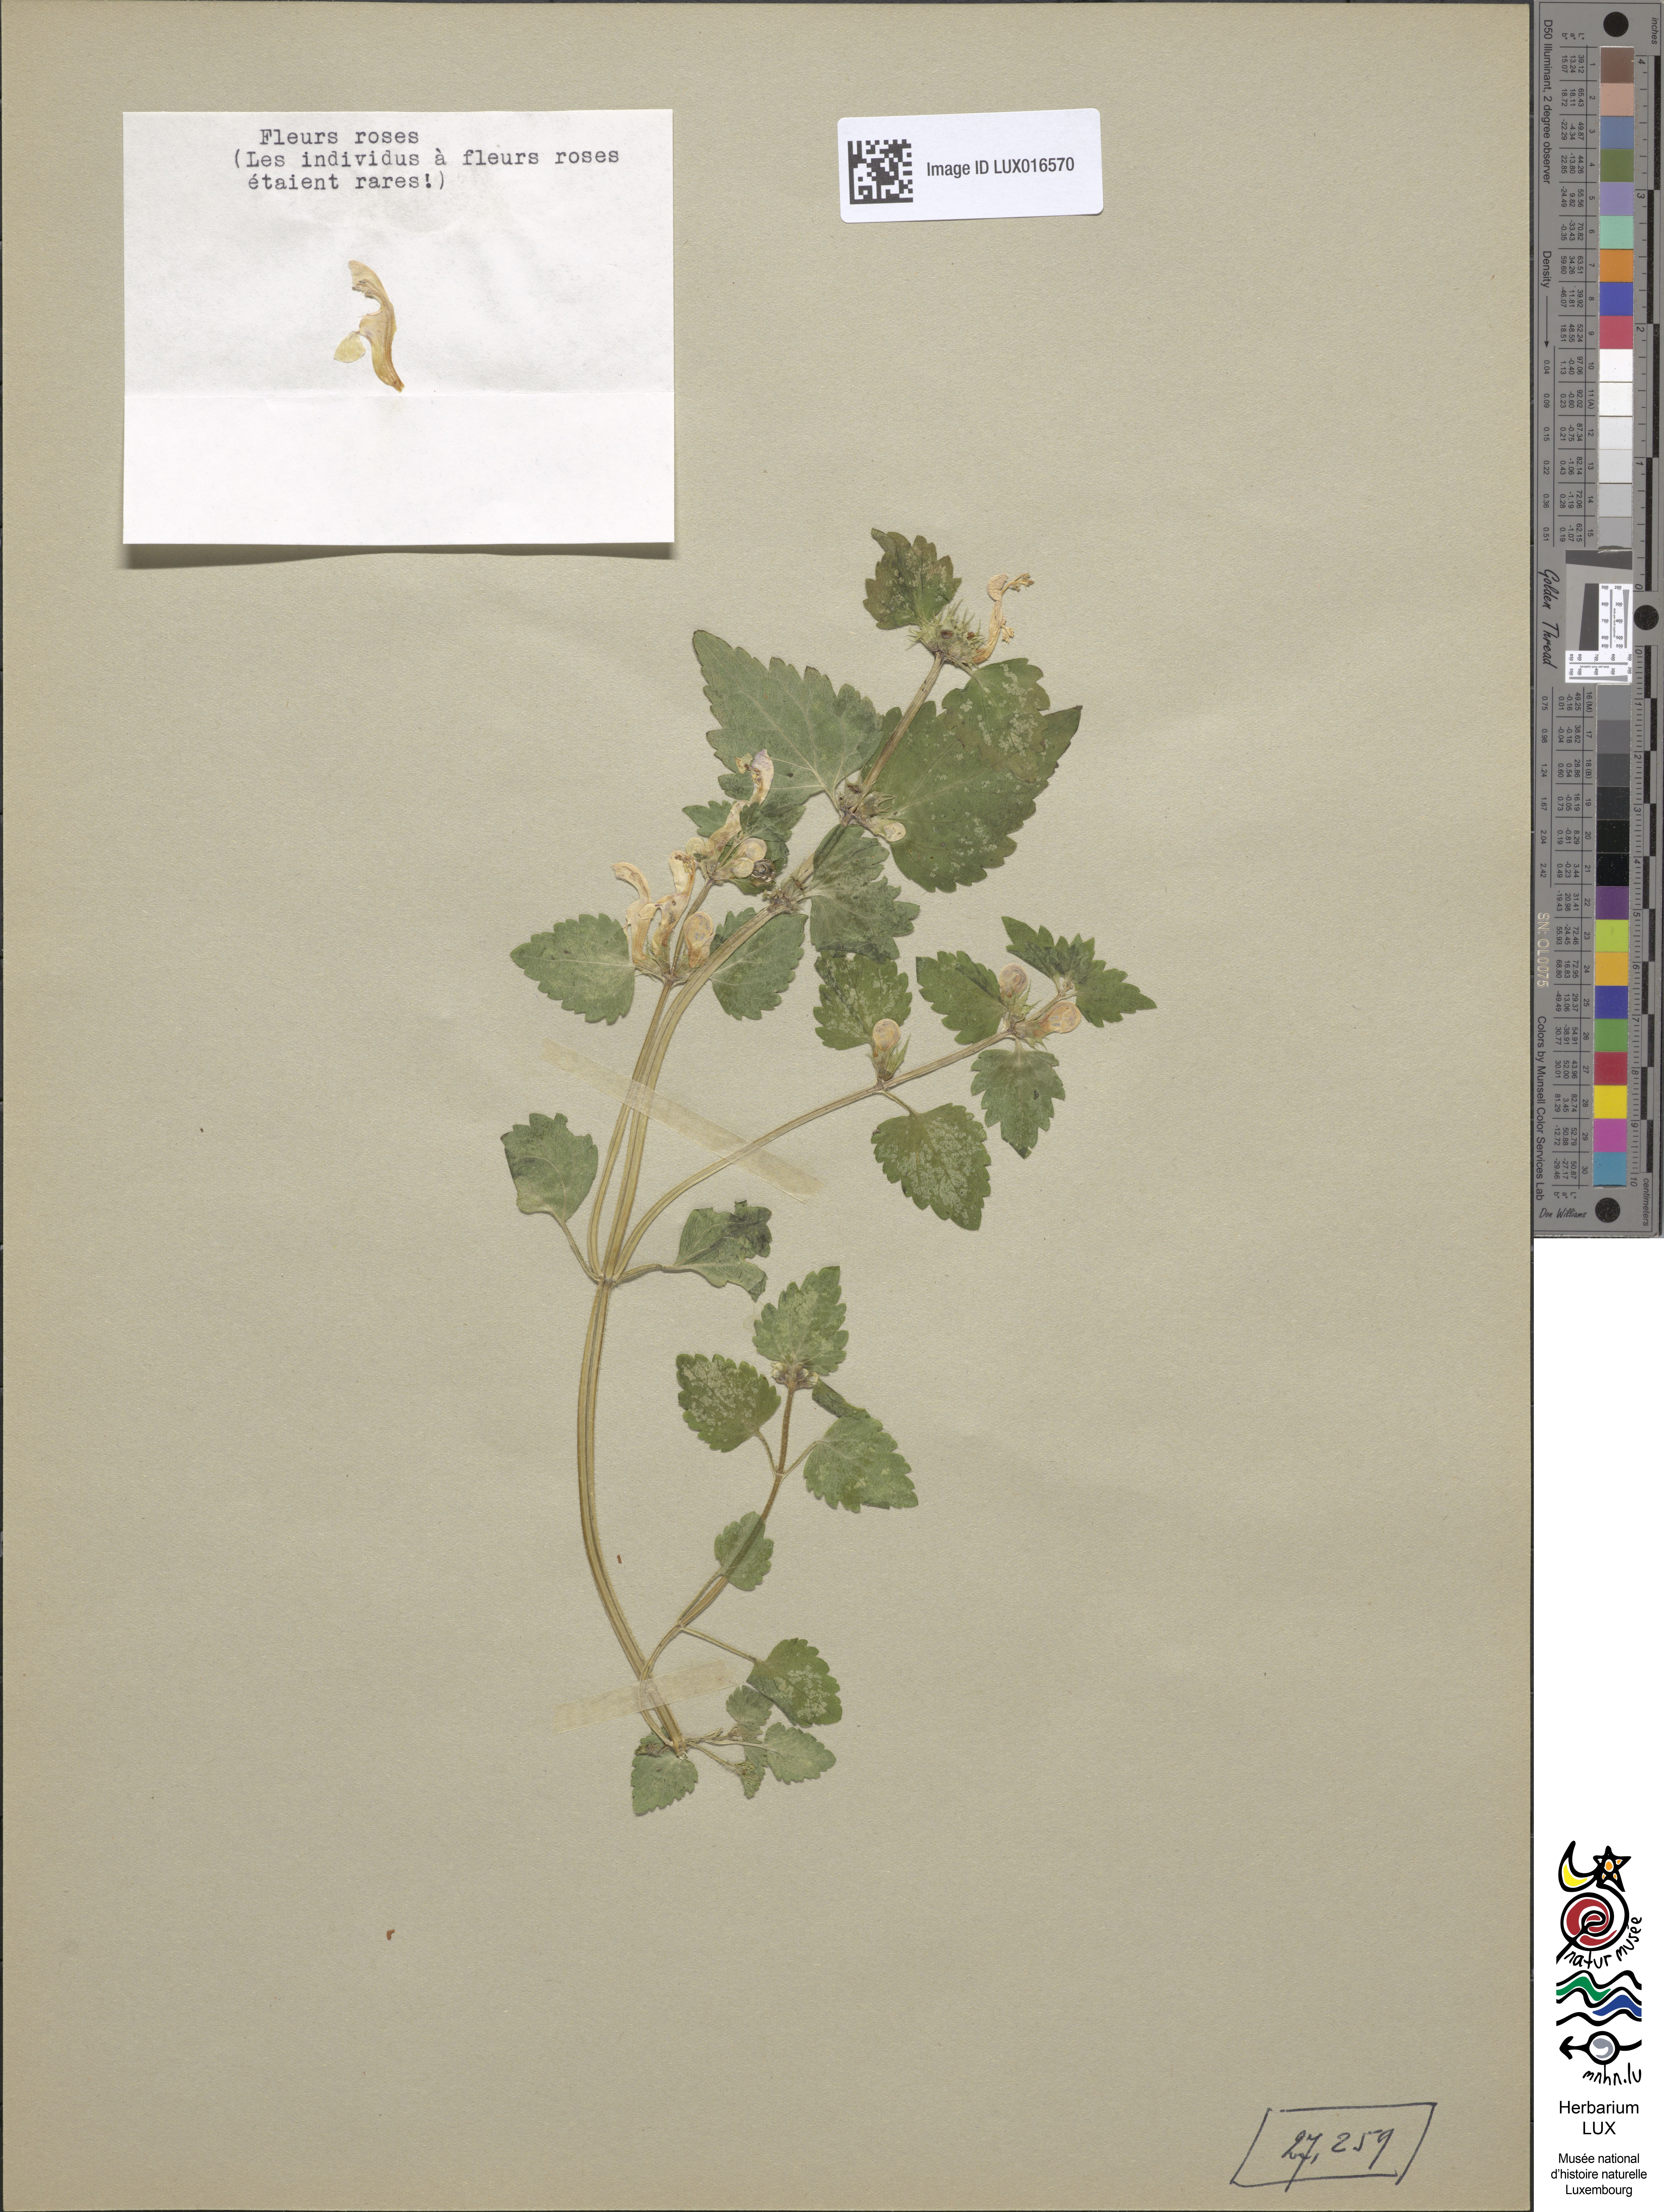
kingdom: Plantae
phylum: Tracheophyta
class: Magnoliopsida
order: Lamiales
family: Lamiaceae
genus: Lamium
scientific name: Lamium maculatum
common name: Spotted dead-nettle
